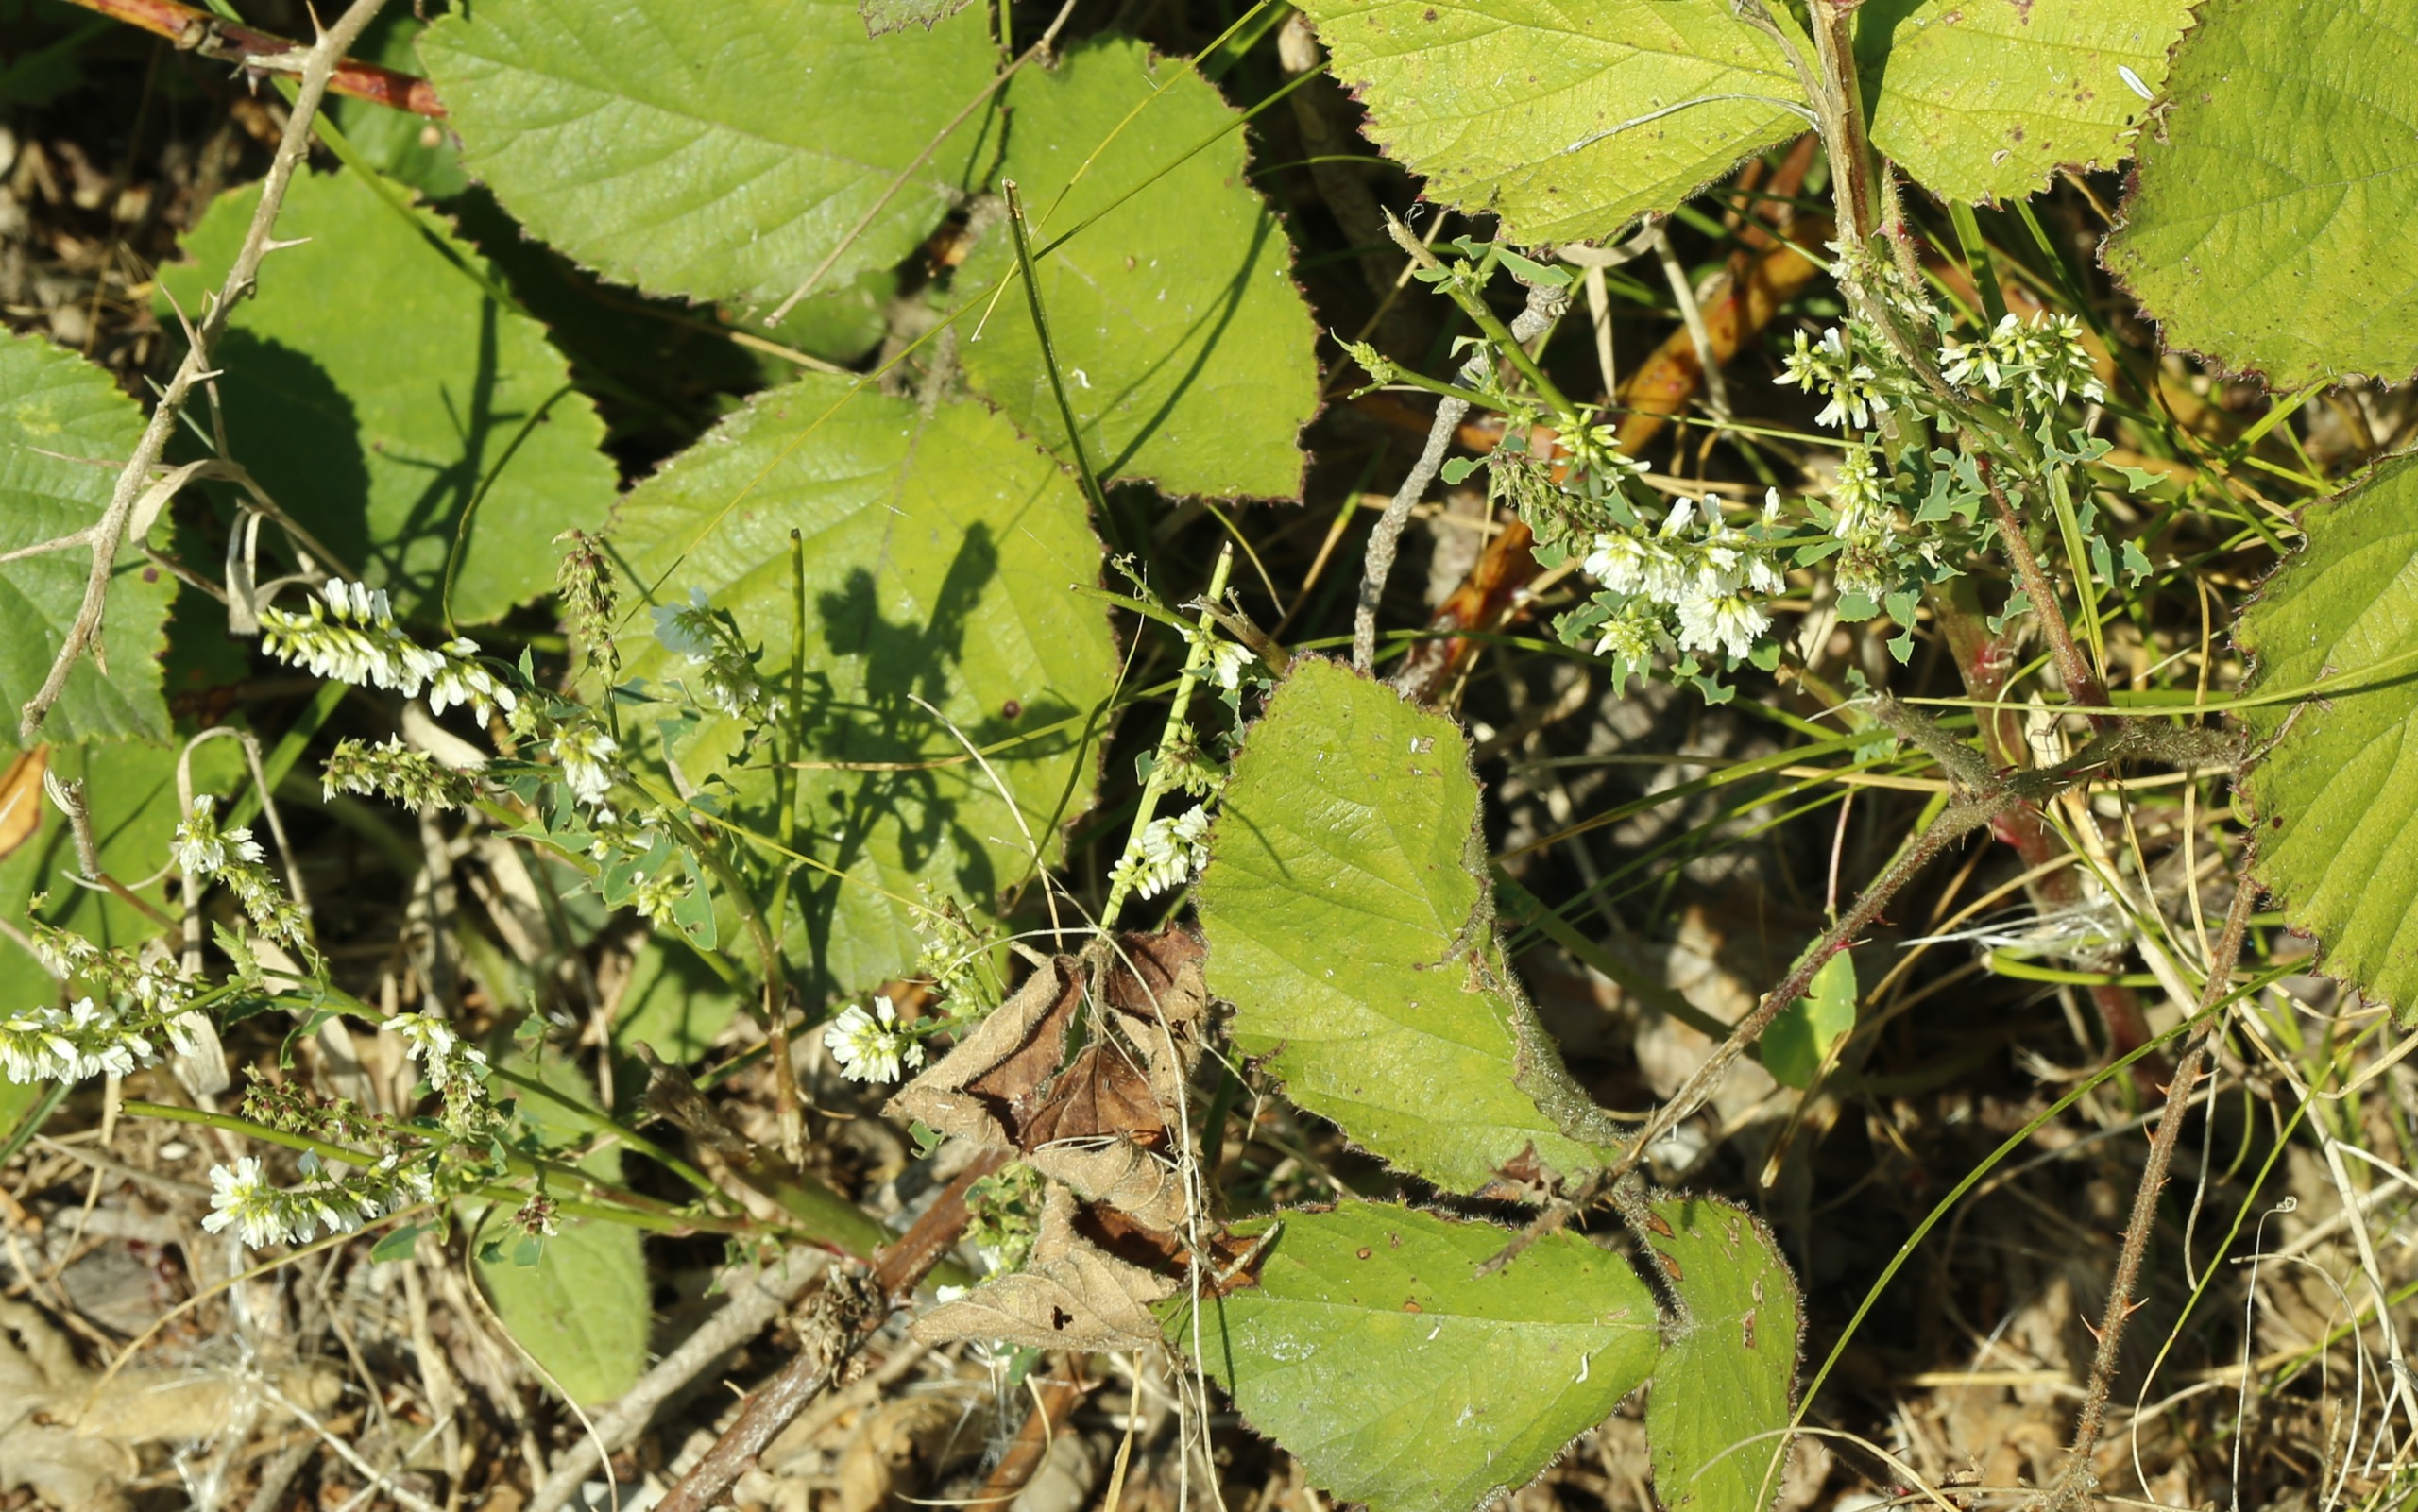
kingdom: Plantae
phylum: Tracheophyta
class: Magnoliopsida
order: Fabales
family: Fabaceae
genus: Melilotus
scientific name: Melilotus albus
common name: Hvid stenkløver
